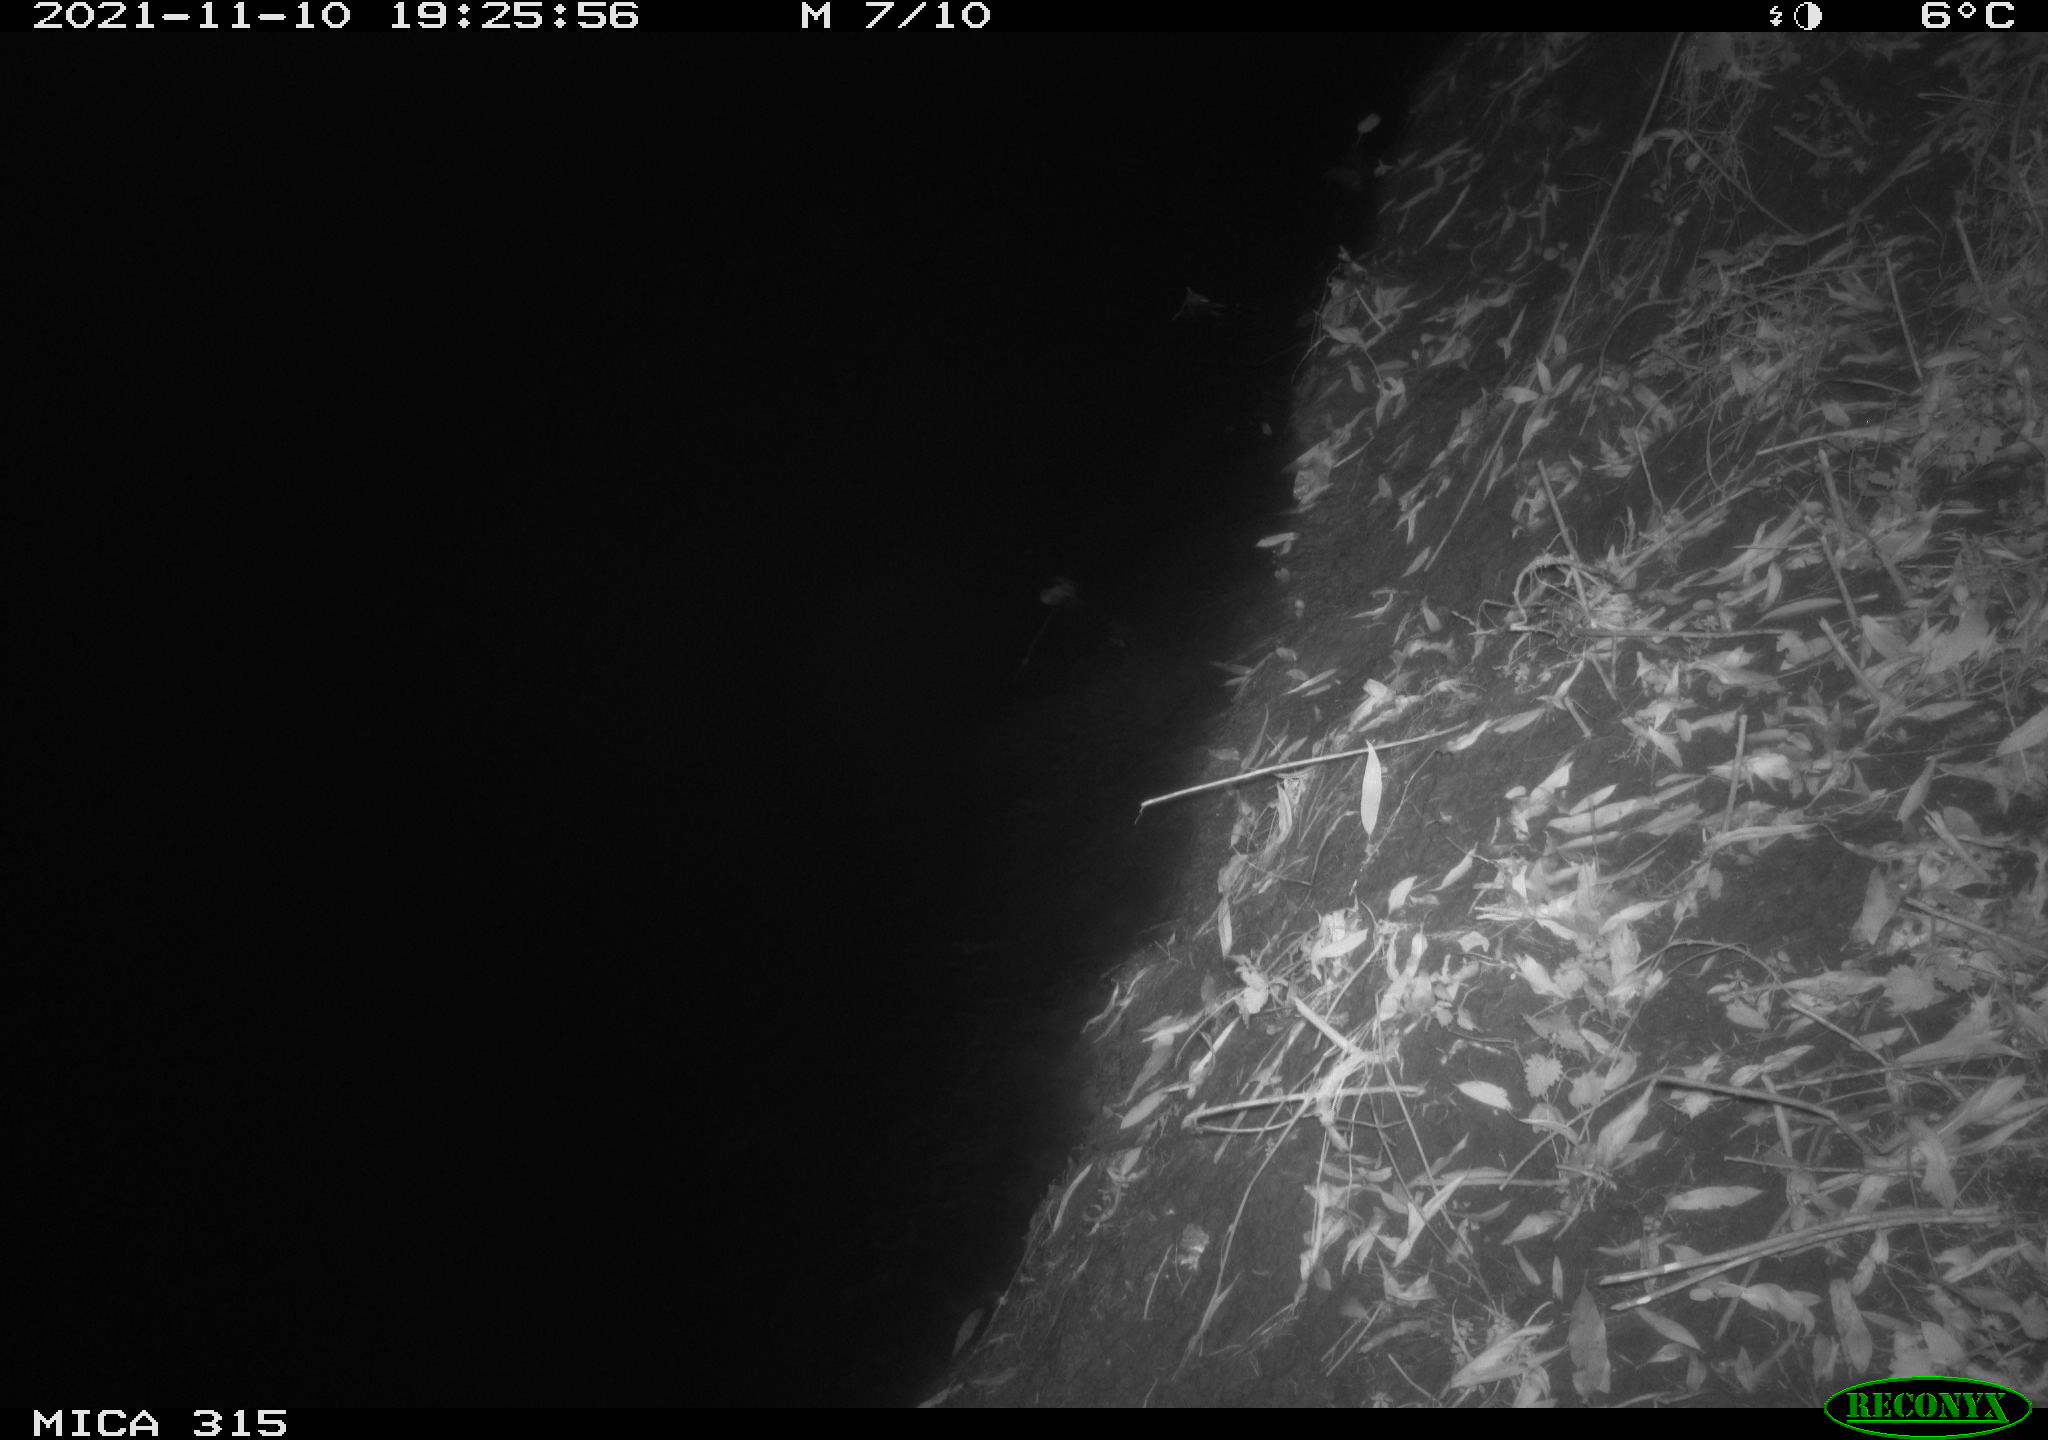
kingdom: Animalia
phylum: Chordata
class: Mammalia
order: Rodentia
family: Muridae
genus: Rattus
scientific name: Rattus norvegicus
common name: Brown rat
